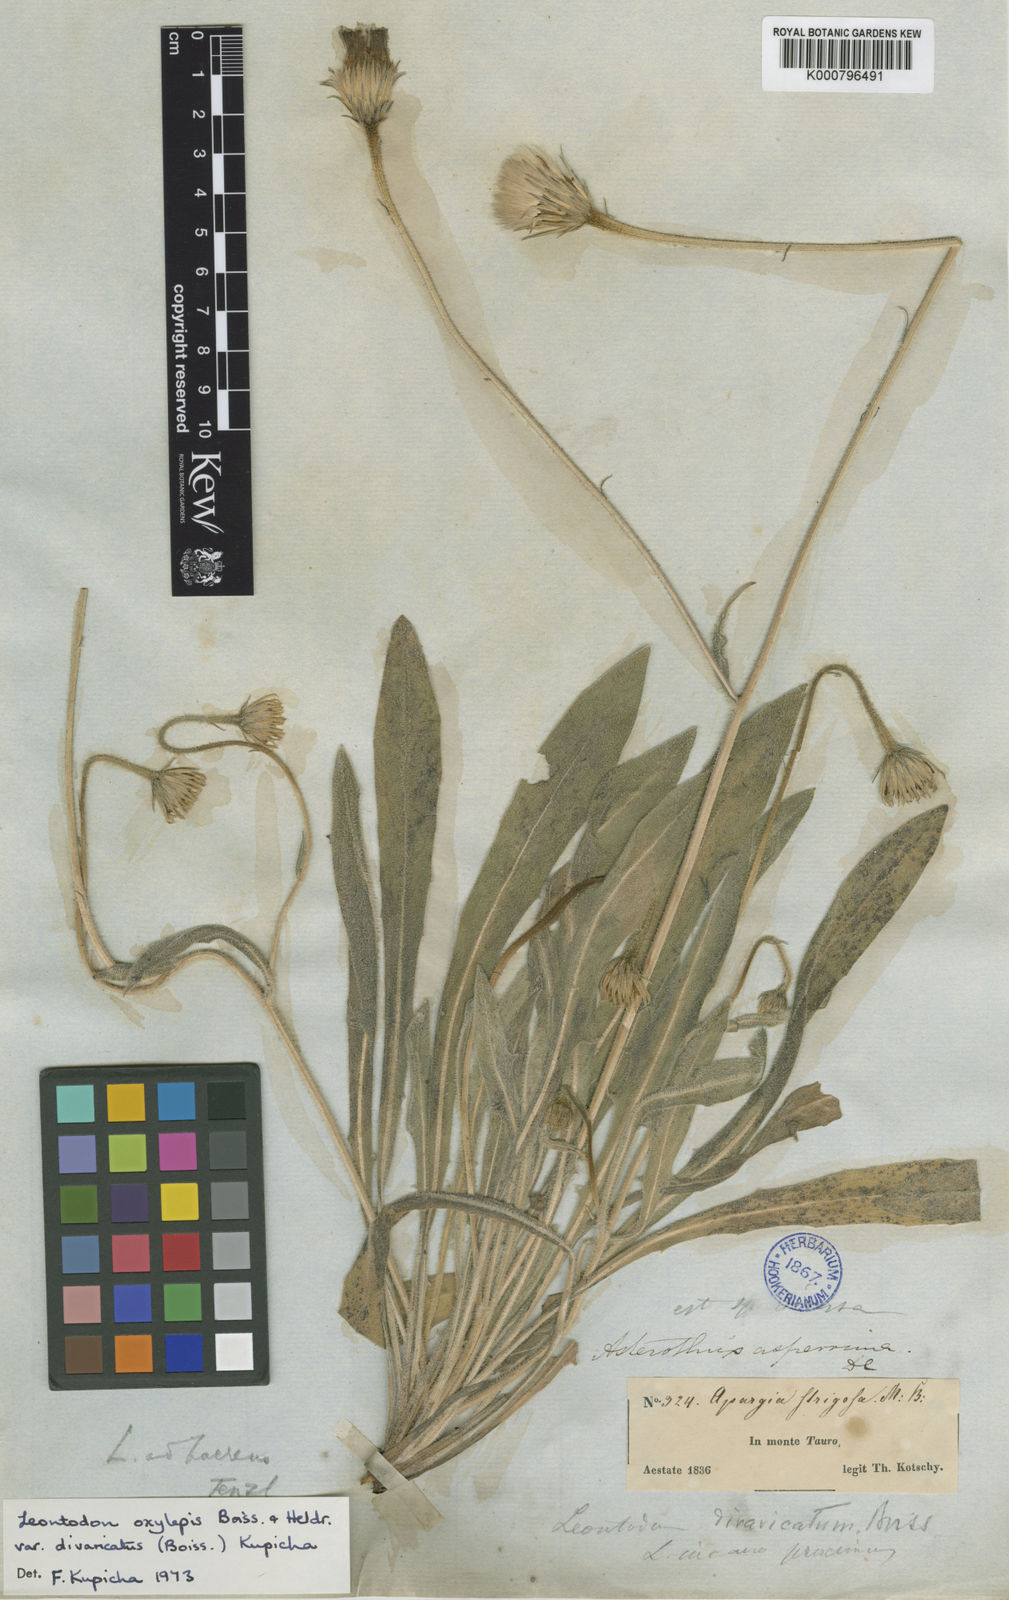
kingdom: Plantae
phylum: Tracheophyta
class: Magnoliopsida
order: Asterales
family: Asteraceae
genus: Leontodon
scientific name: Leontodon oxylepis
